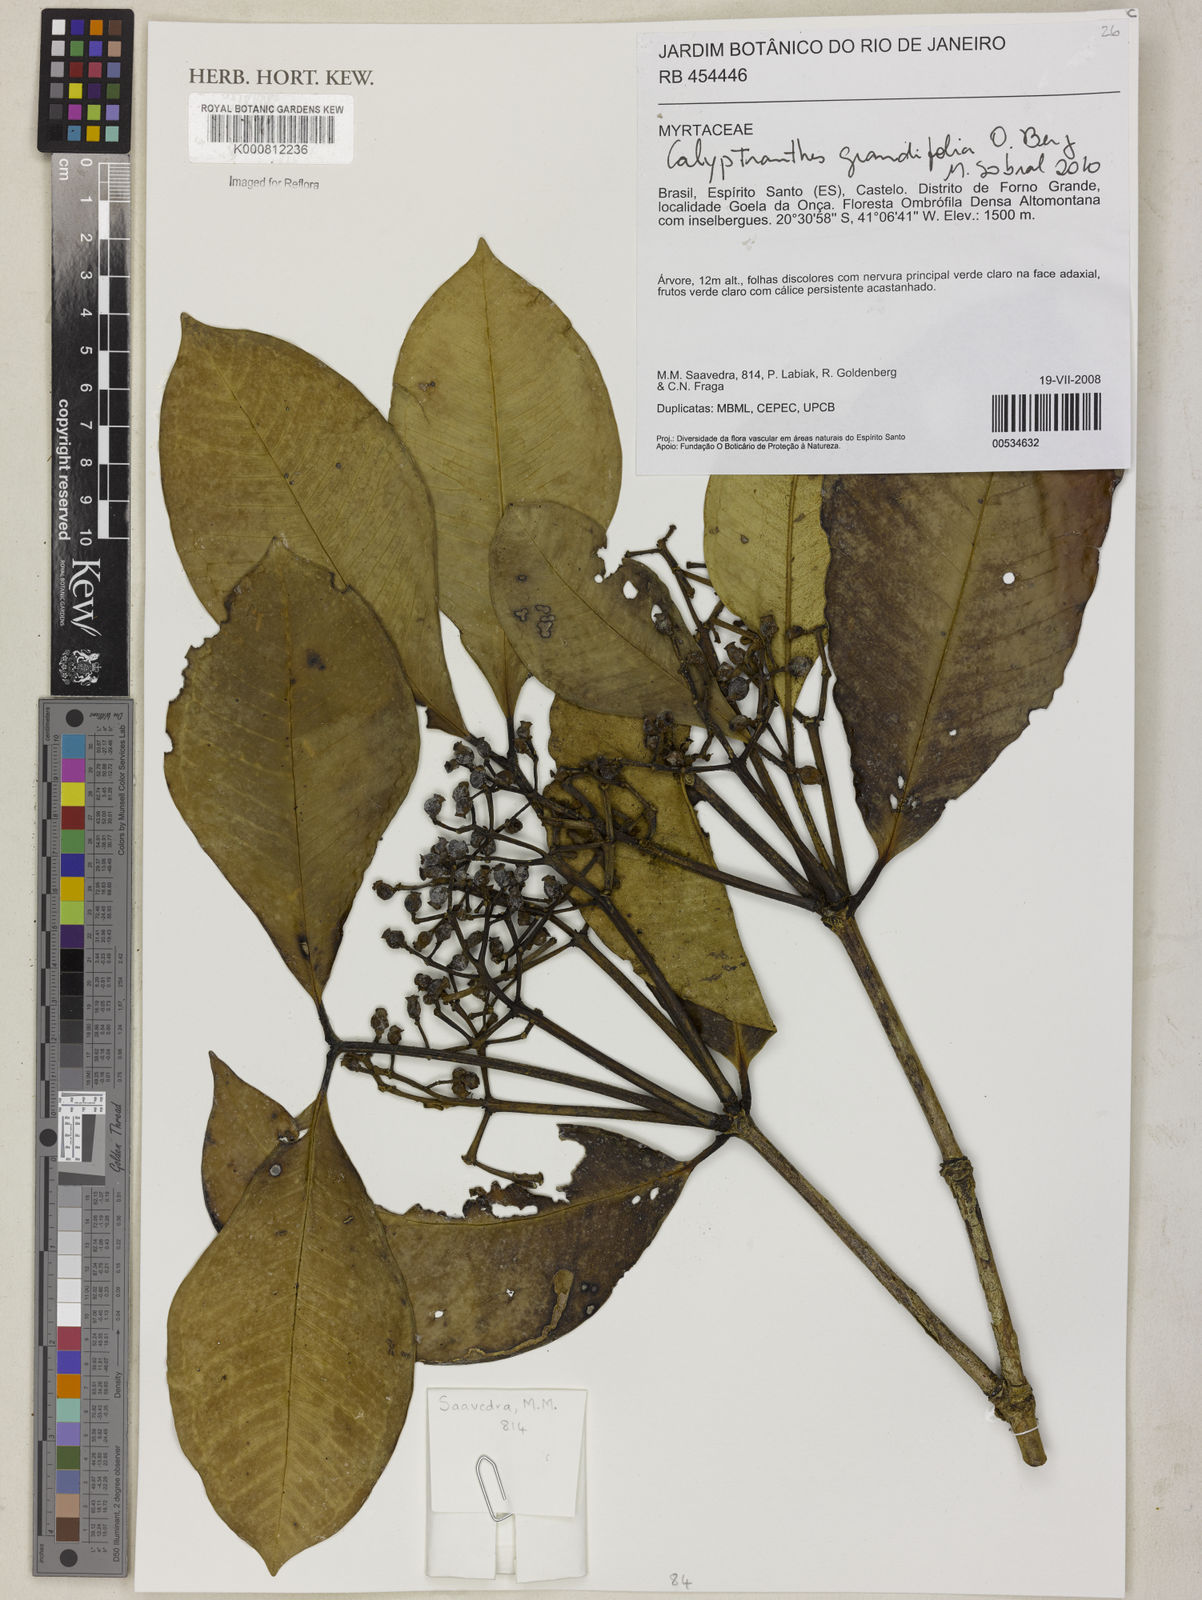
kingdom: Plantae
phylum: Tracheophyta
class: Magnoliopsida
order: Myrtales
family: Myrtaceae
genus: Calyptranthes
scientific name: Calyptranthes grandifolia
